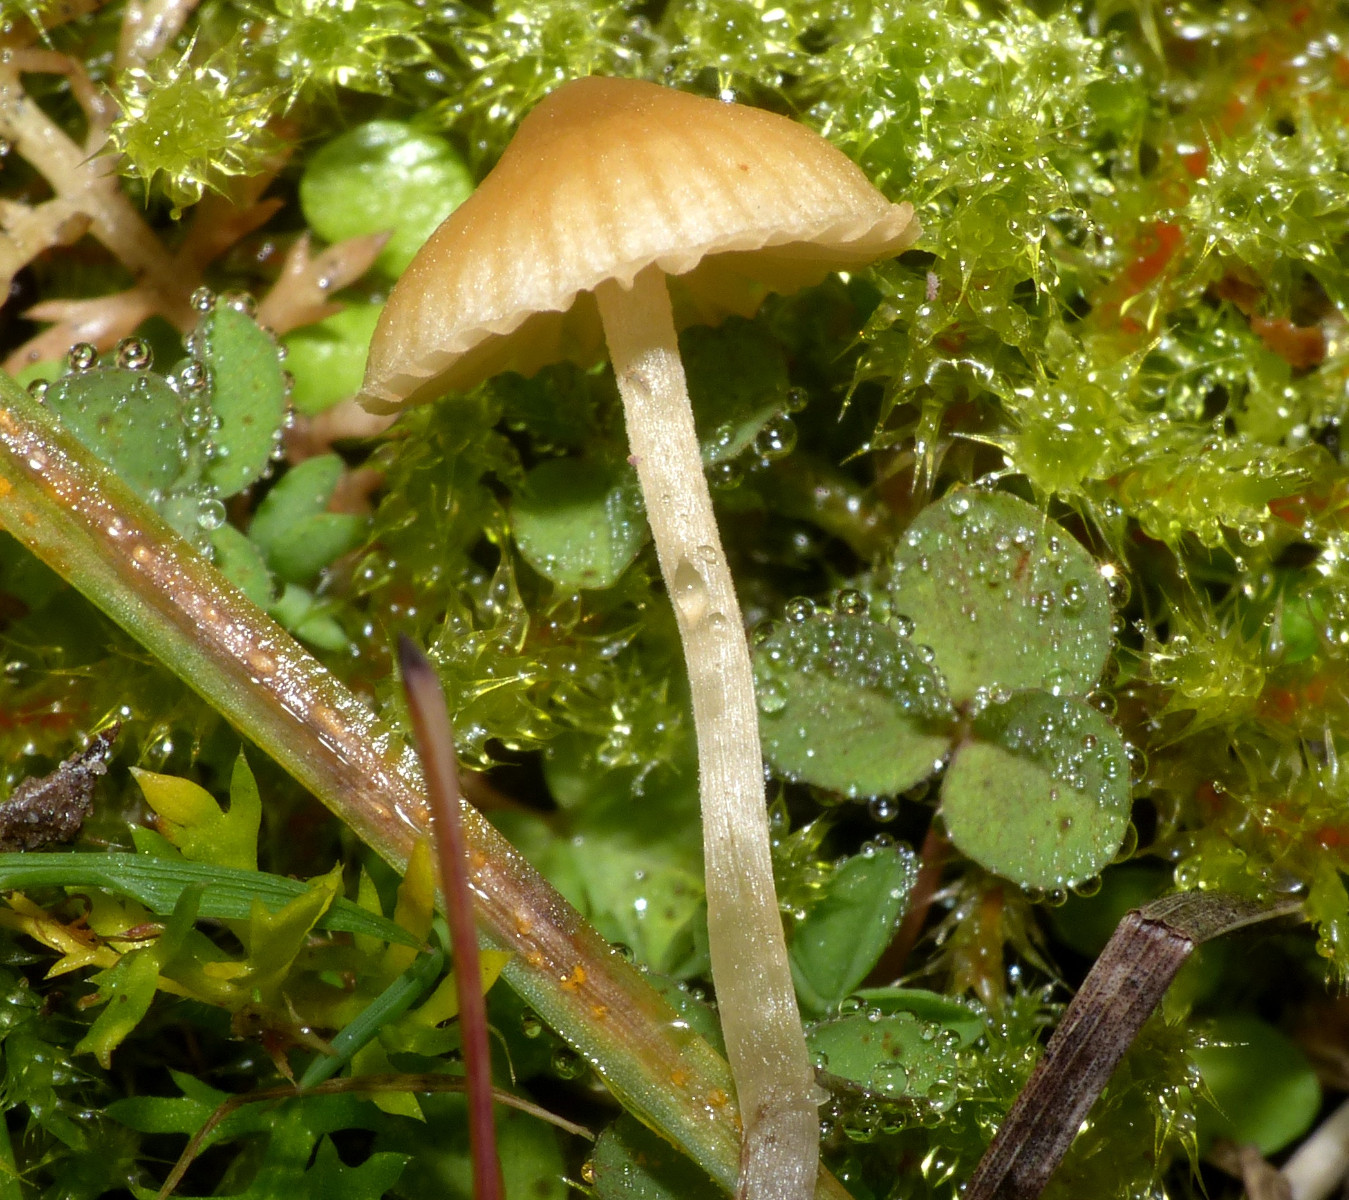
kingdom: Fungi
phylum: Basidiomycota
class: Agaricomycetes
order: Agaricales
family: Hymenogastraceae
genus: Galerina
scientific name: Galerina graminea
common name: plæne-hjelmhat
